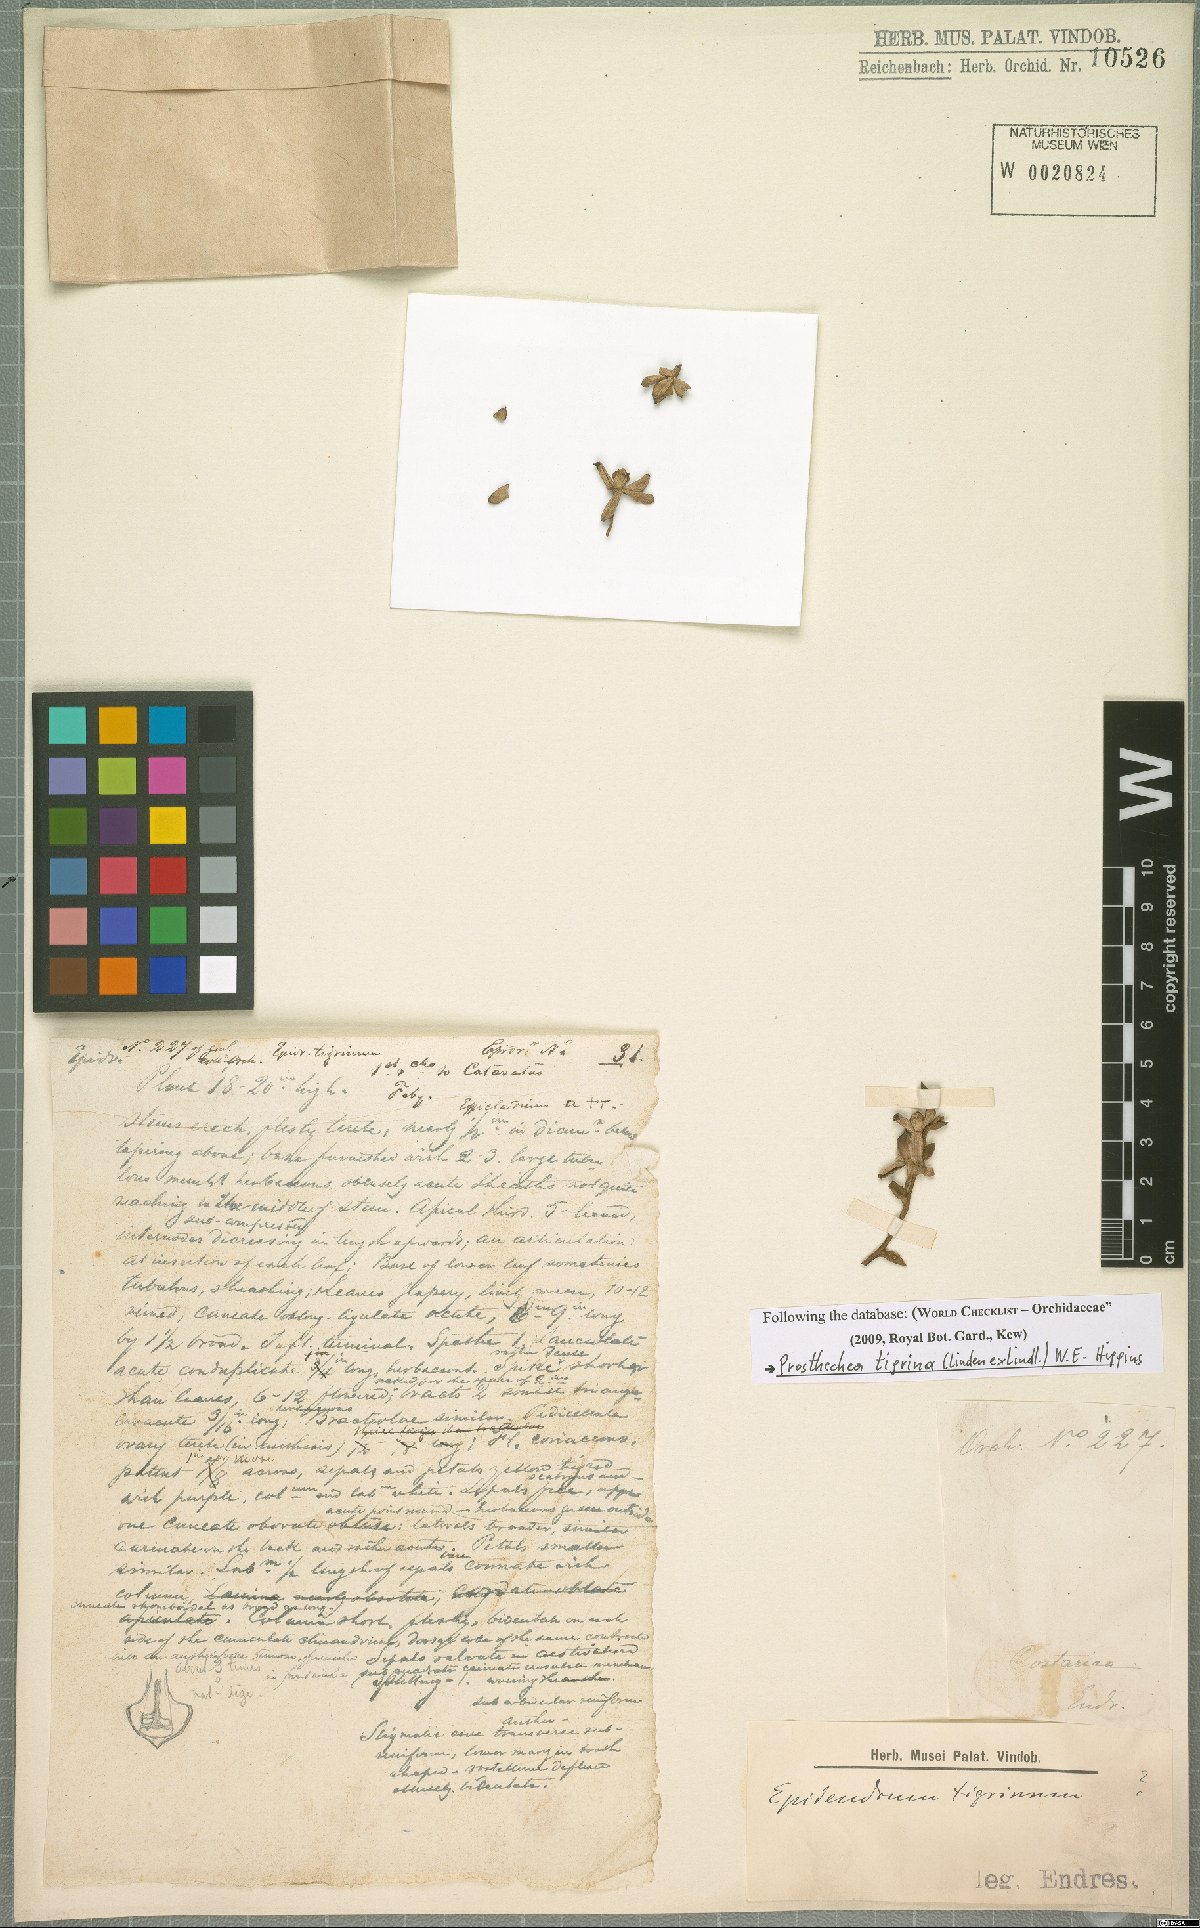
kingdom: Plantae
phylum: Tracheophyta
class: Liliopsida
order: Asparagales
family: Orchidaceae
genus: Prosthechea
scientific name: Prosthechea crassilabia
